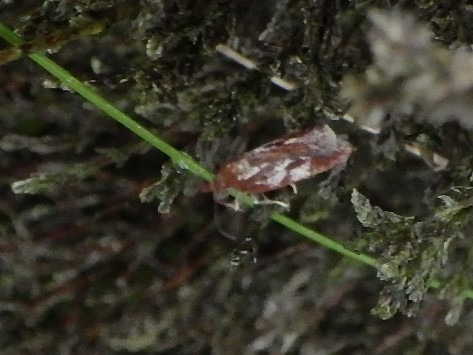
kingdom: Animalia
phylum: Arthropoda
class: Insecta
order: Lepidoptera
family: Tortricidae
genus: Acleris
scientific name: Acleris hyemana
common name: Lyngvintervikler
